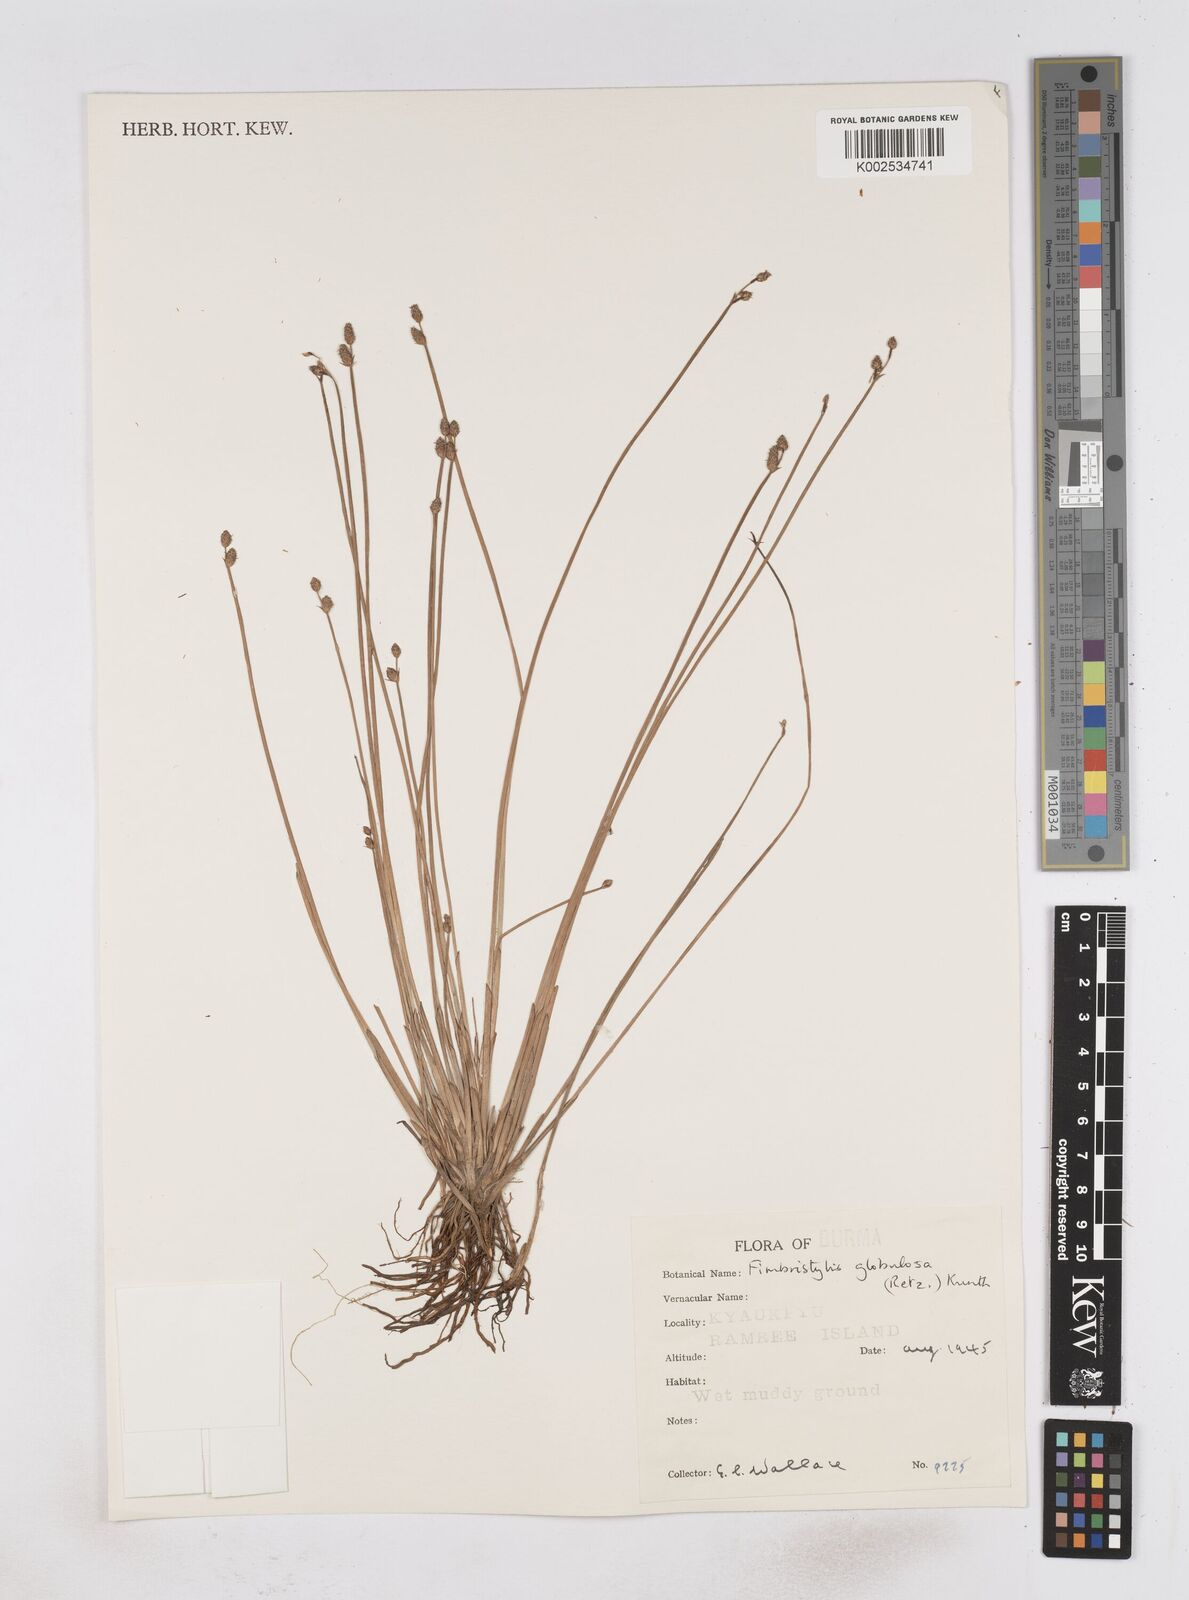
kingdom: Plantae
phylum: Tracheophyta
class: Liliopsida
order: Poales
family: Cyperaceae
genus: Fimbristylis
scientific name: Fimbristylis umbellaris
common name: Globular fimbristylis
